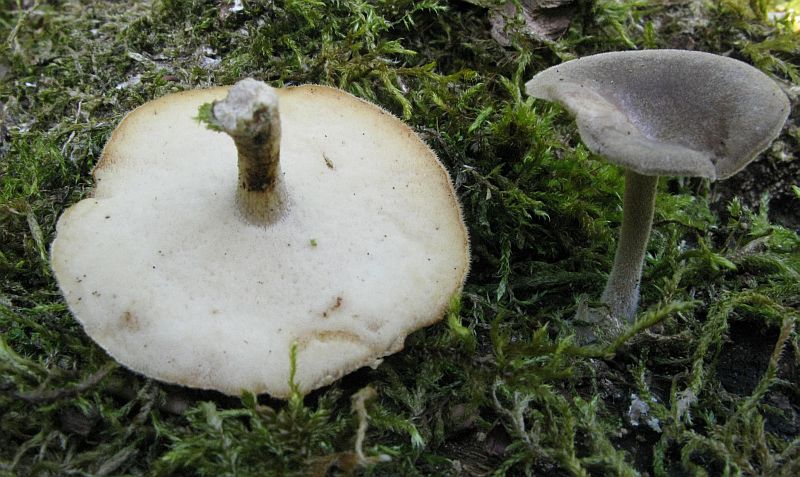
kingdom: Fungi
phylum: Basidiomycota
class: Agaricomycetes
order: Polyporales
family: Polyporaceae
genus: Lentinus
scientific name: Lentinus substrictus
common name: forårs-stilkporesvamp
